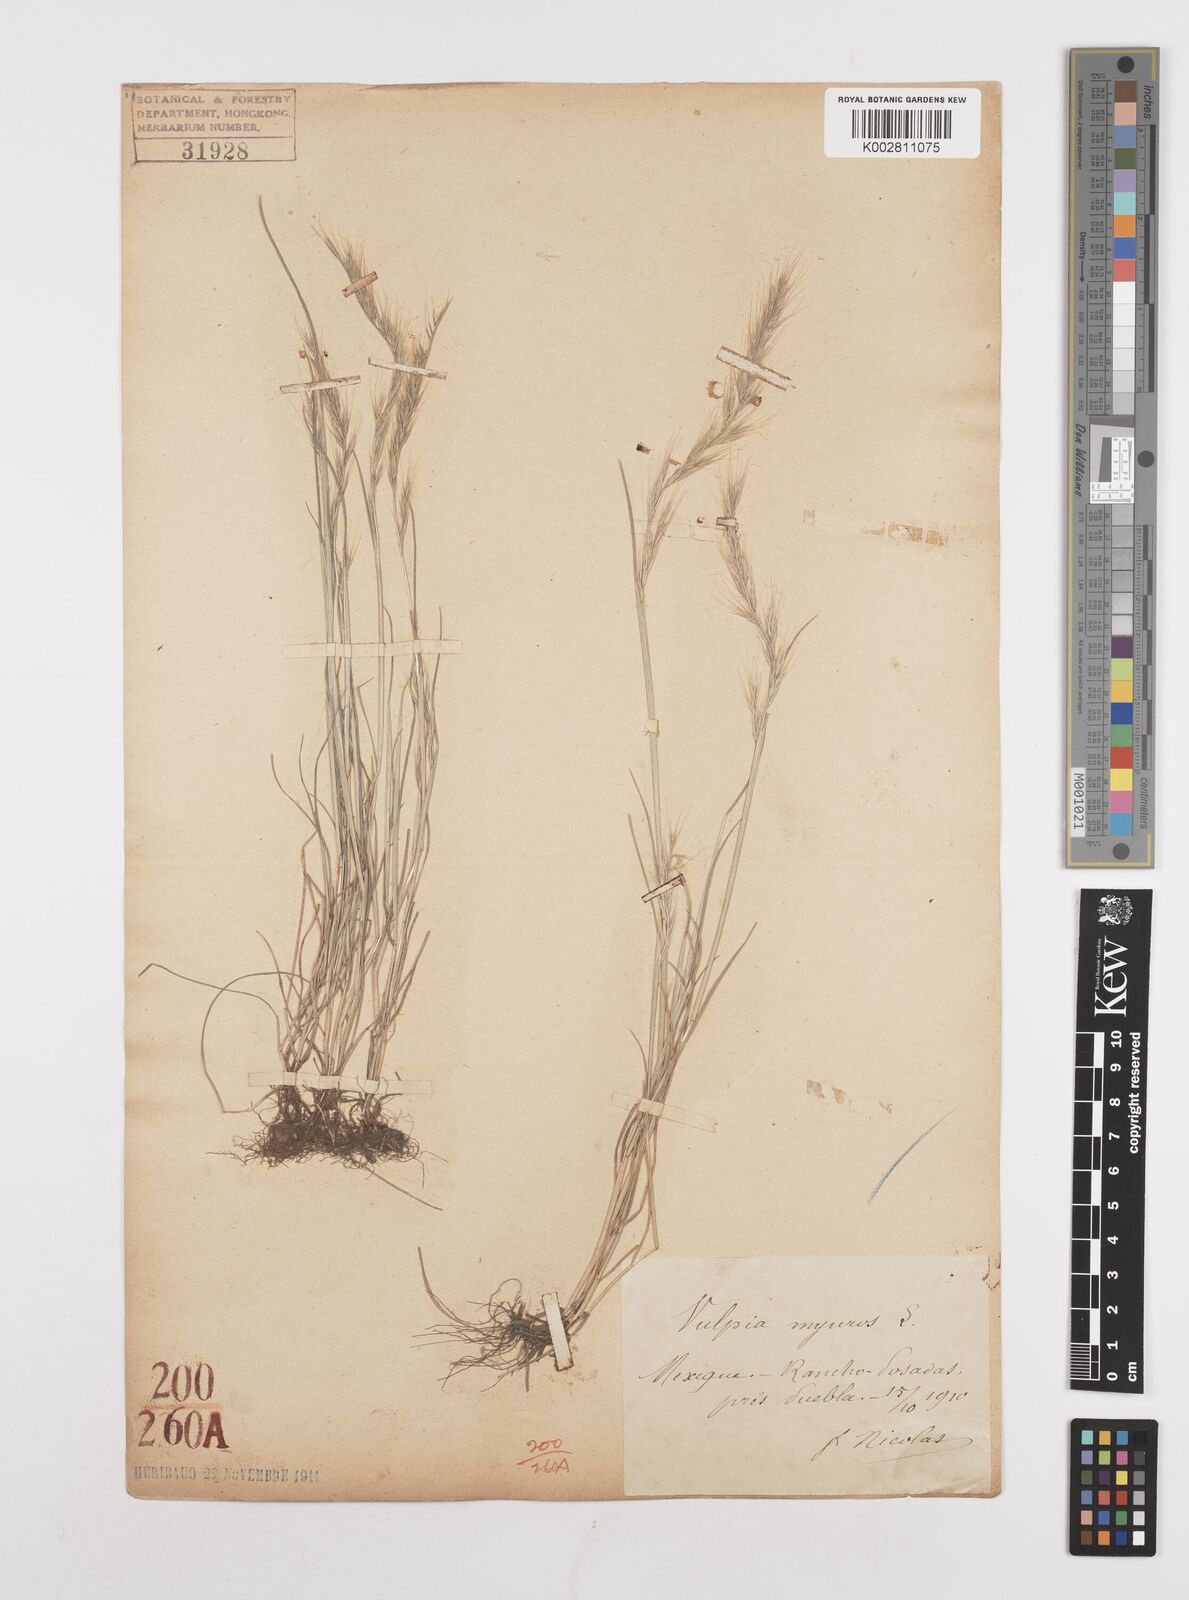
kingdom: Plantae
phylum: Tracheophyta
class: Liliopsida
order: Poales
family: Poaceae
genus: Festuca
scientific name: Festuca myuros
